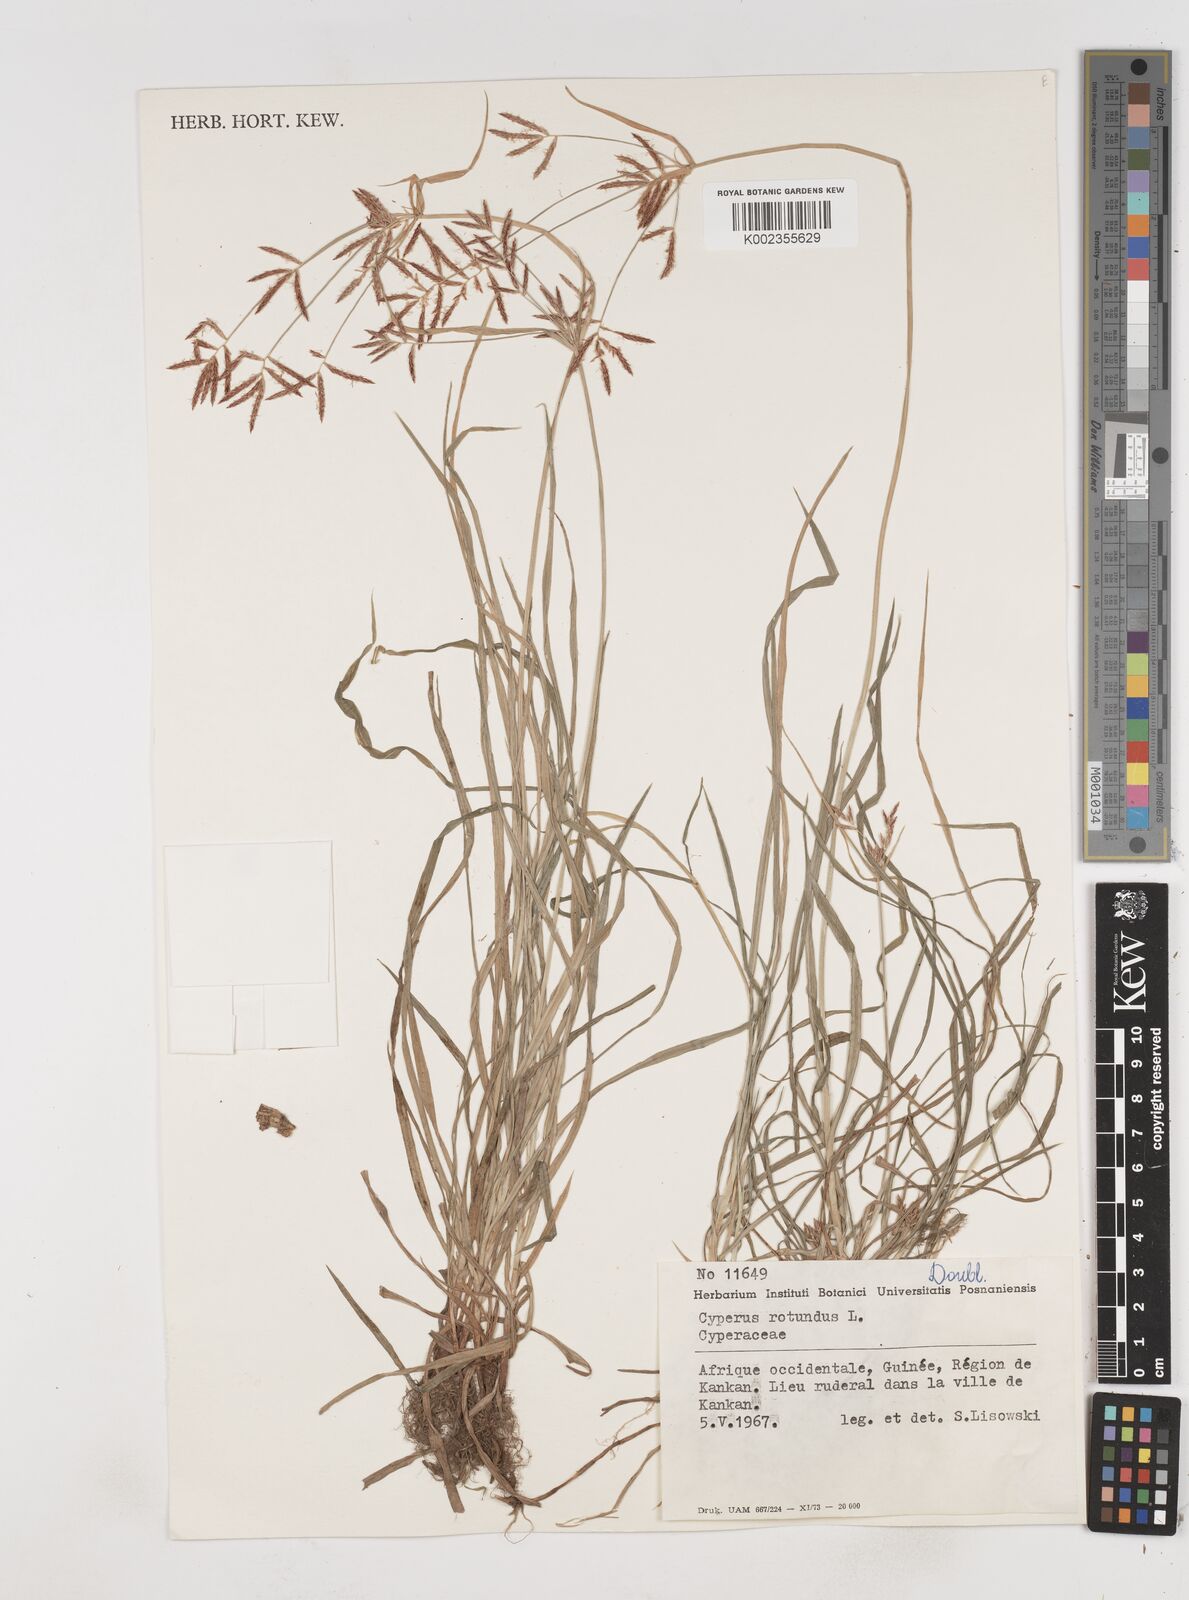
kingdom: Plantae
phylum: Tracheophyta
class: Liliopsida
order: Poales
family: Cyperaceae
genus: Cyperus
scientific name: Cyperus rotundus
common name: Nutgrass
